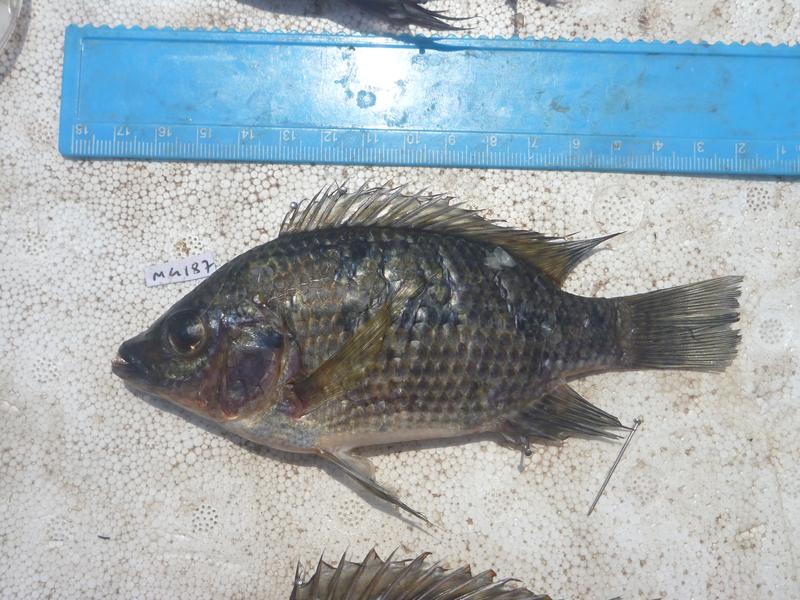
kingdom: Animalia
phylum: Chordata
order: Perciformes
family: Cichlidae
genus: Oreochromis
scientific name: Oreochromis karomo
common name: Karomo
